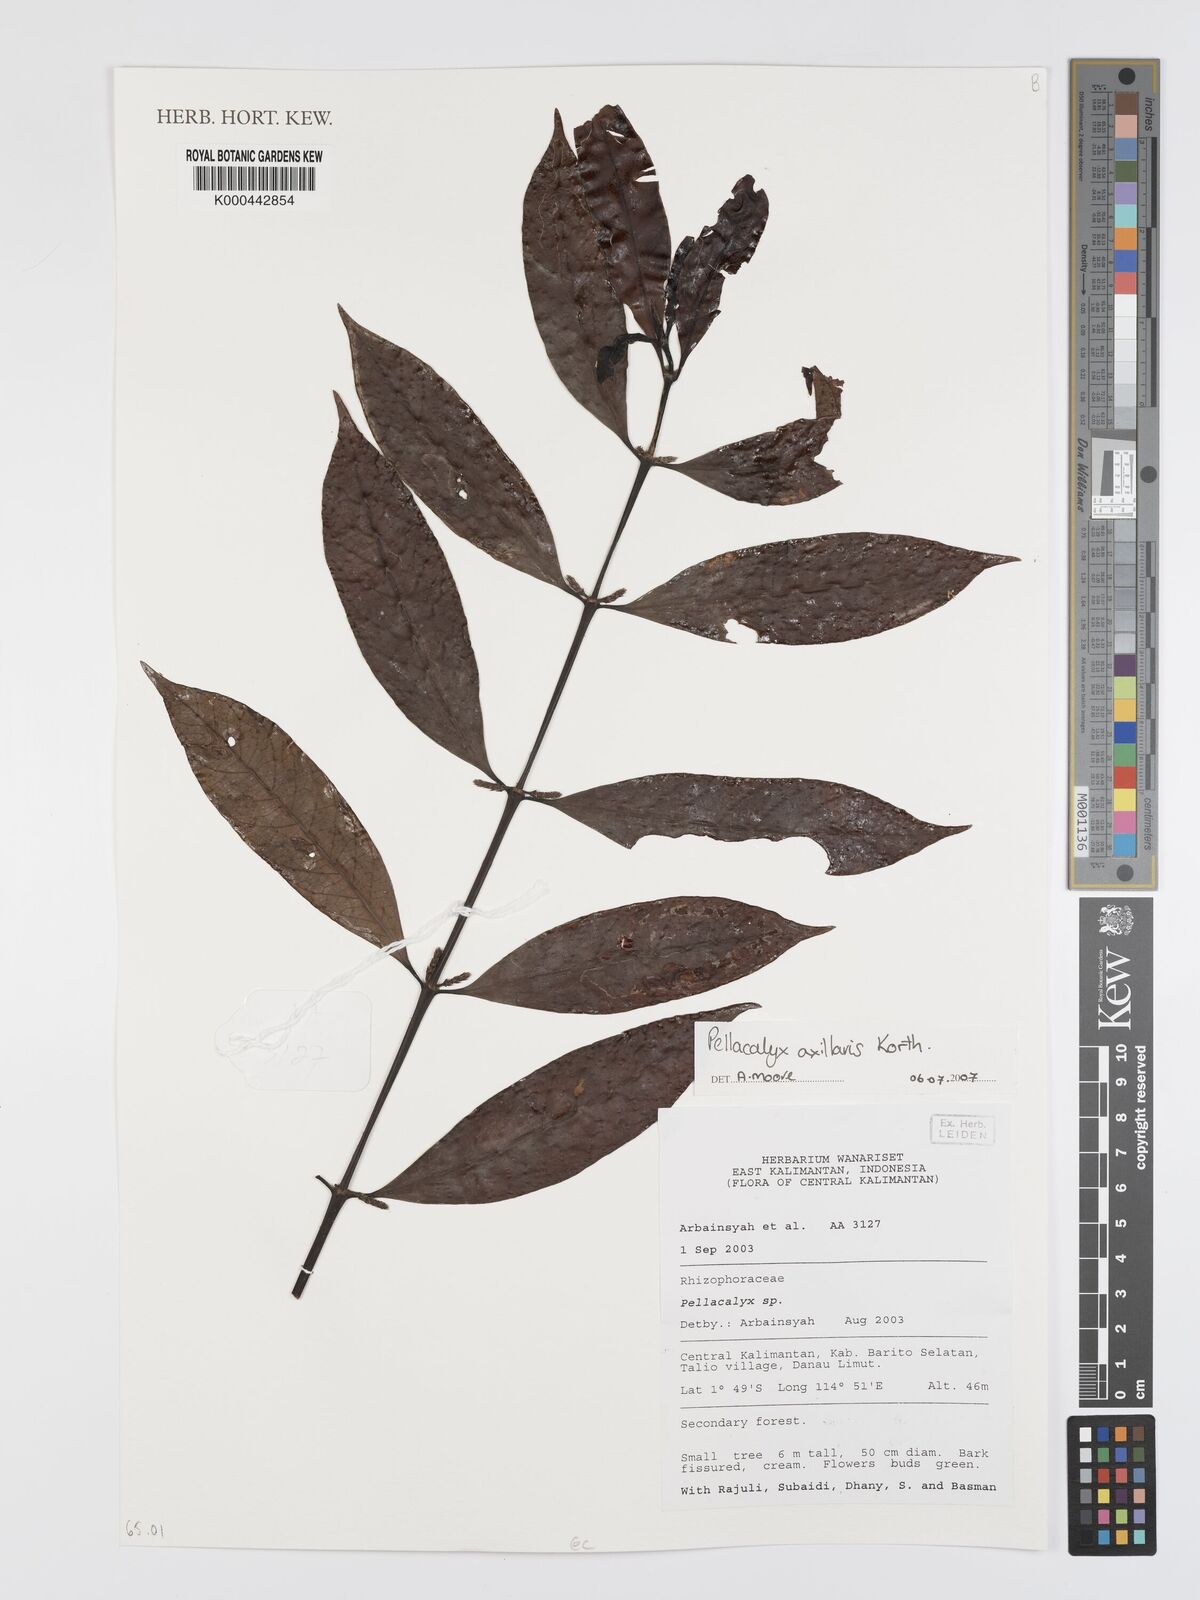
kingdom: Plantae
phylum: Tracheophyta
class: Magnoliopsida
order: Malpighiales
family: Rhizophoraceae
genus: Pellacalyx
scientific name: Pellacalyx axillaris
